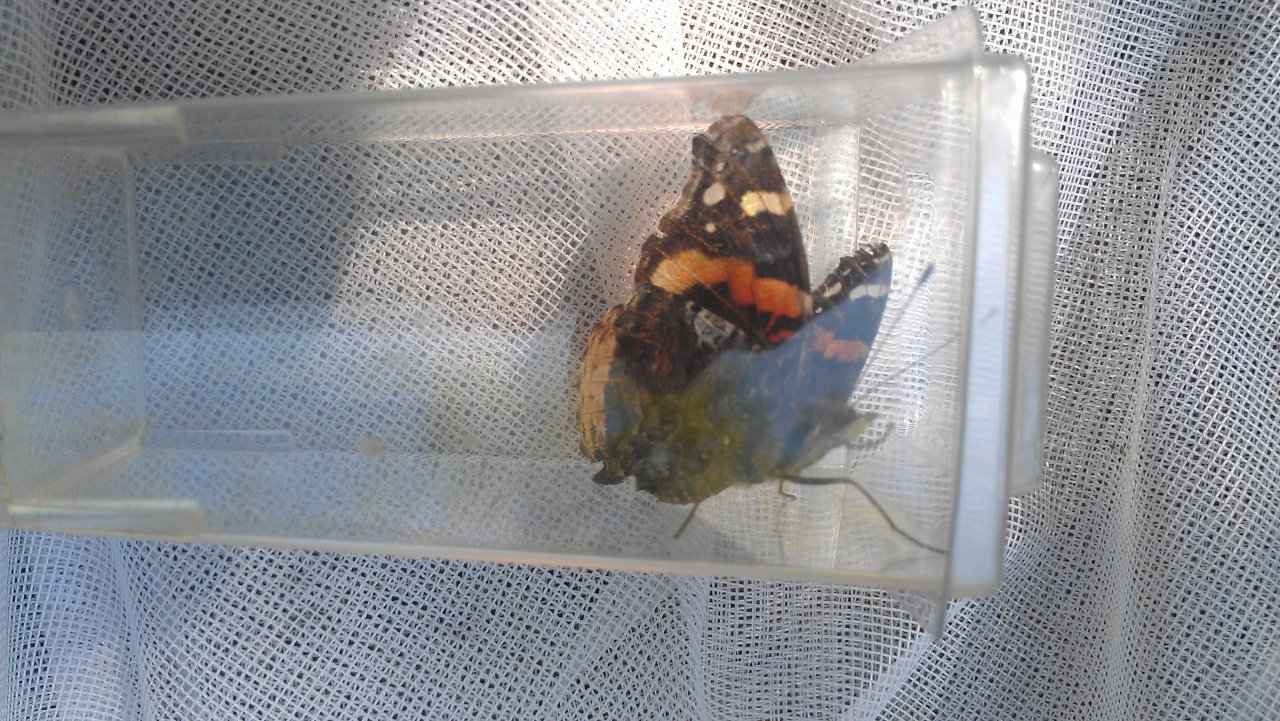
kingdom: Animalia
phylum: Arthropoda
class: Insecta
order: Lepidoptera
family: Nymphalidae
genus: Vanessa
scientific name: Vanessa atalanta
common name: Red Admiral
